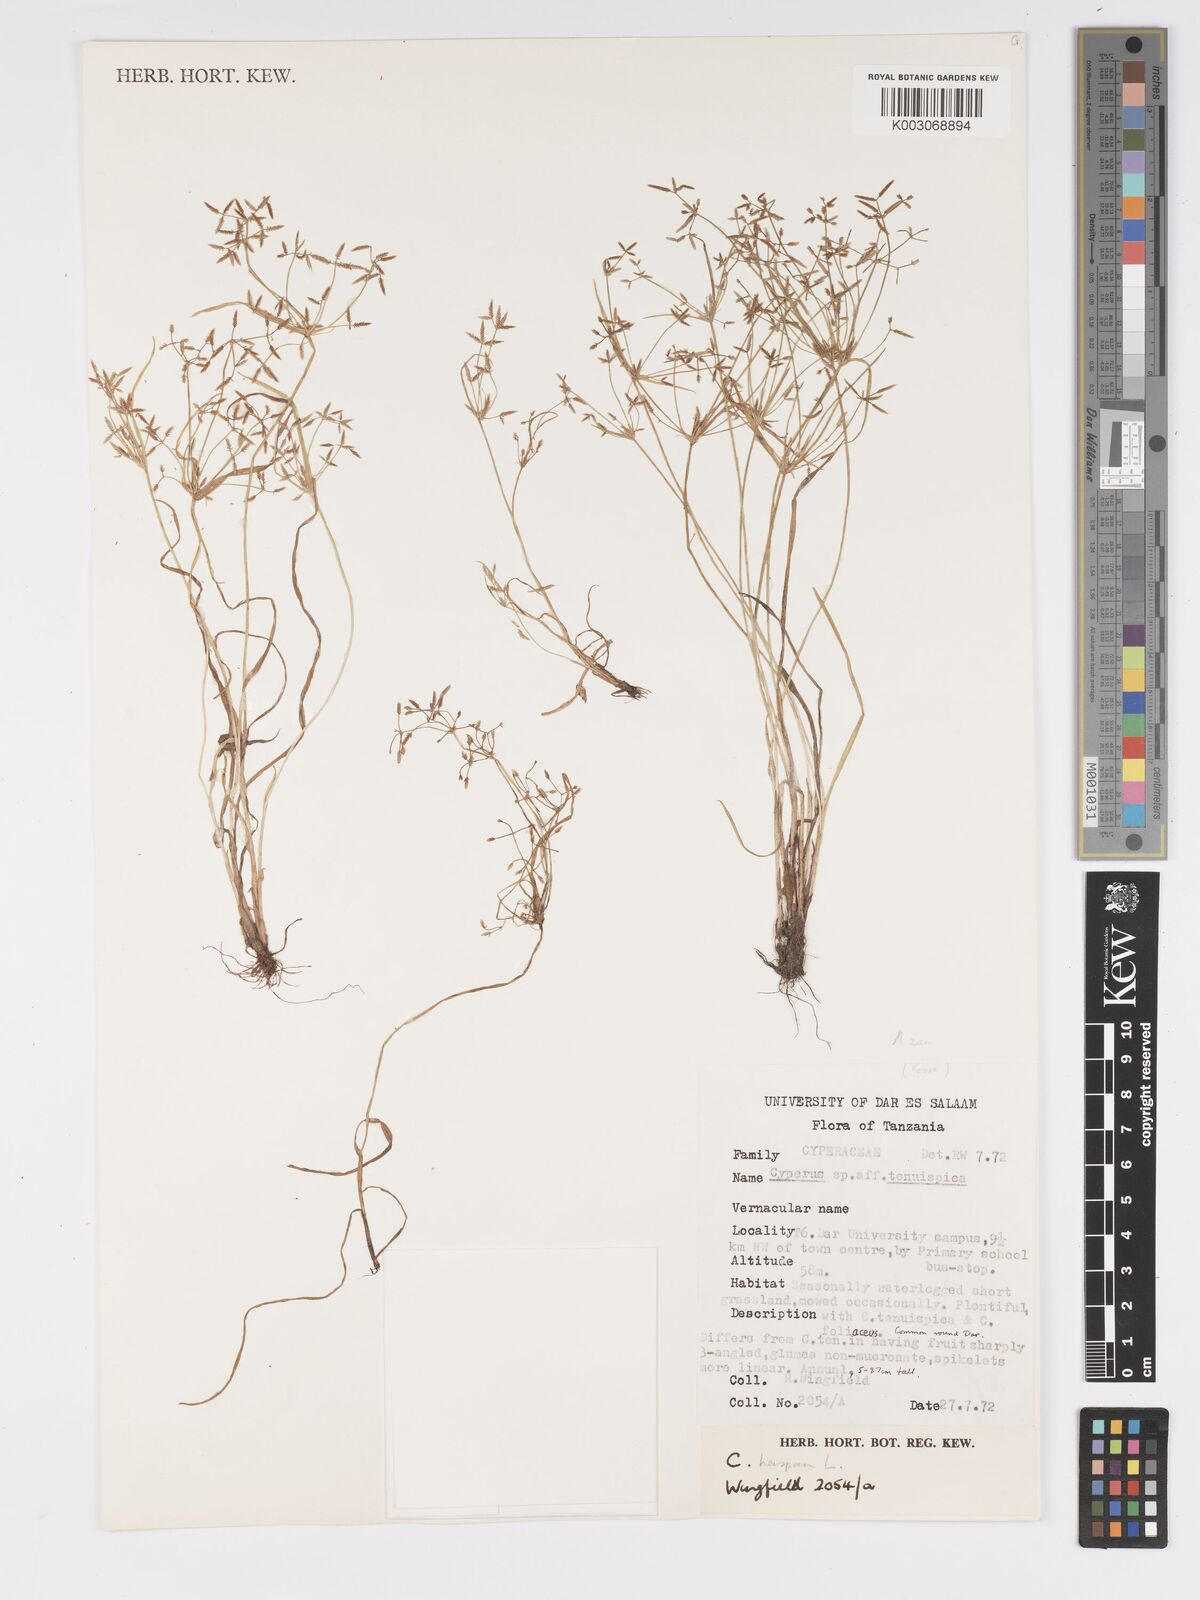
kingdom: Plantae
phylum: Tracheophyta
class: Liliopsida
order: Poales
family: Cyperaceae
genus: Cyperus
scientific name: Cyperus
